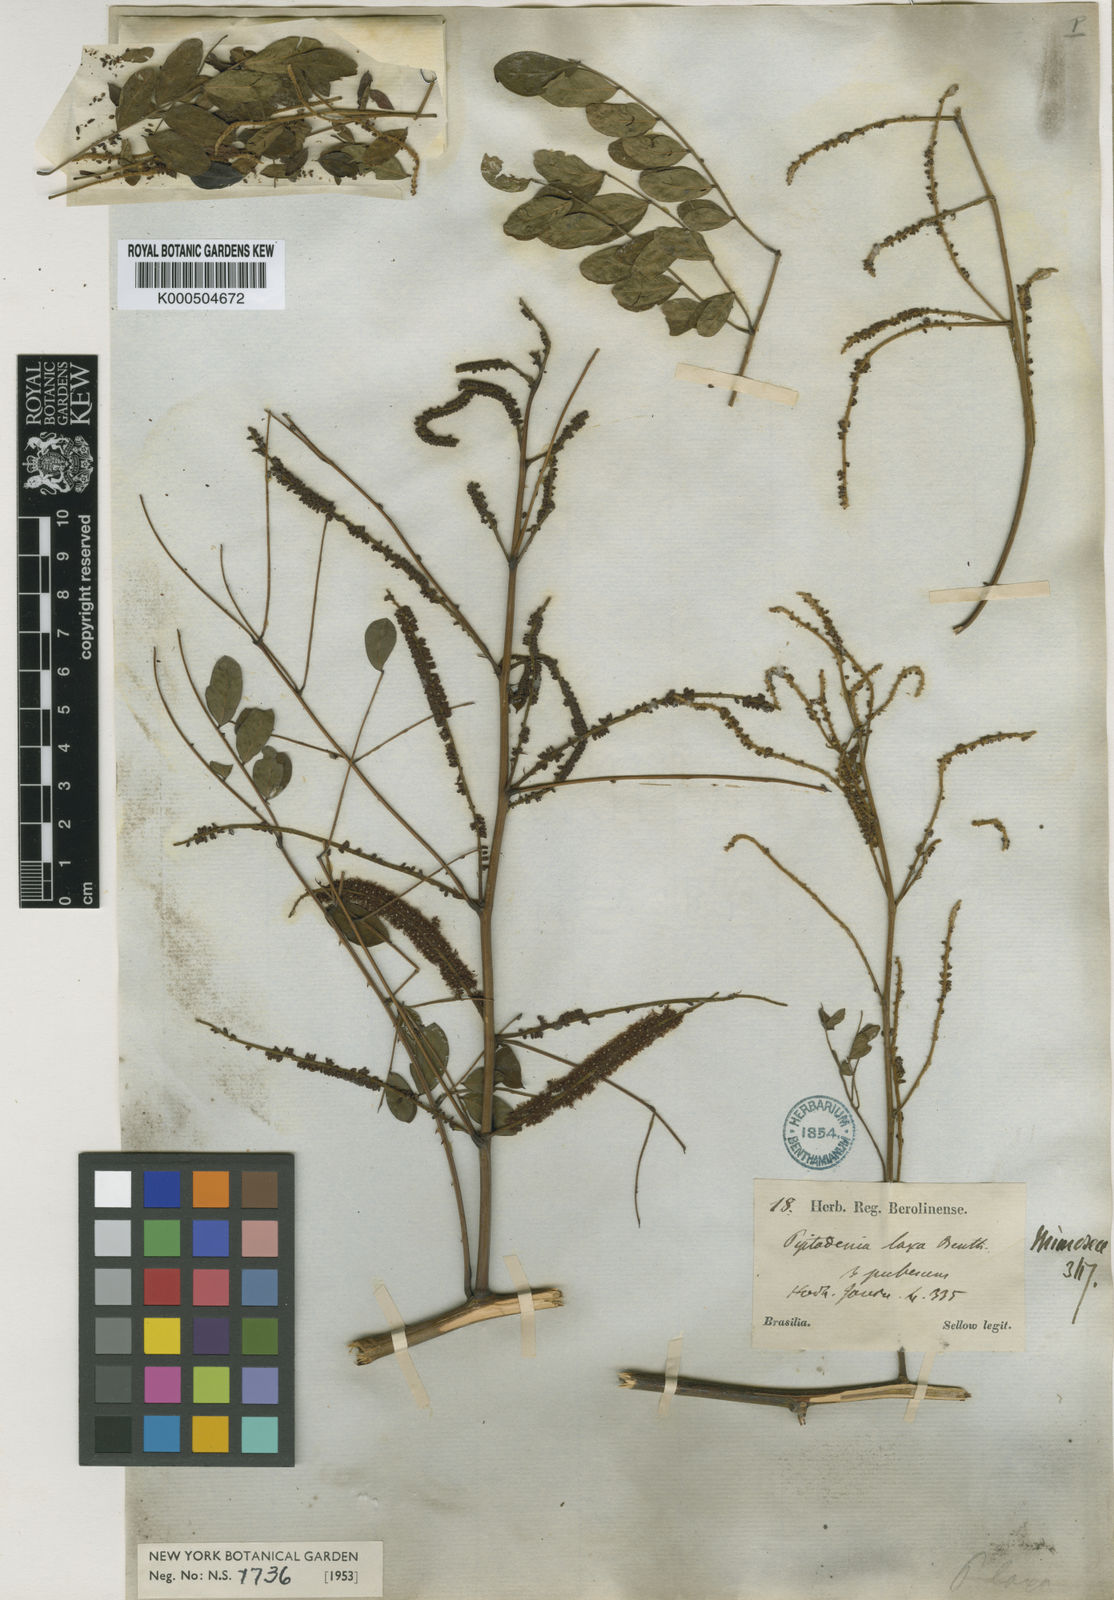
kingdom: Plantae
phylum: Tracheophyta
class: Magnoliopsida
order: Fabales
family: Fabaceae
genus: Piptadenia
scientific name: Piptadenia adiantoides
